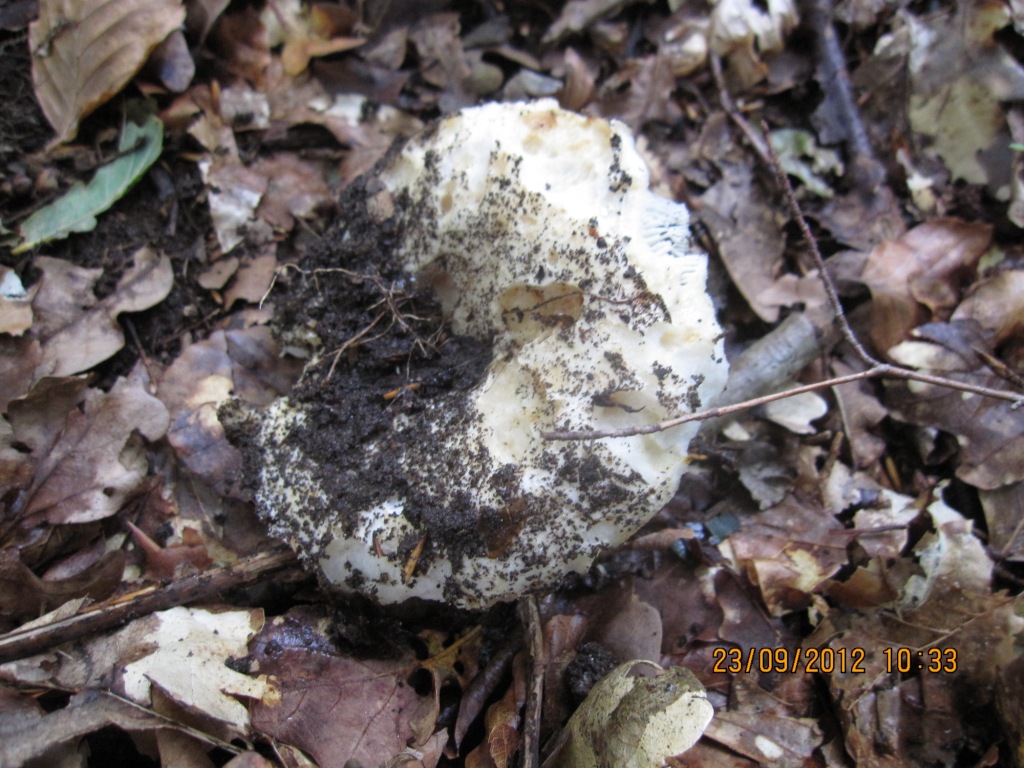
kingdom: Fungi
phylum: Basidiomycota
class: Agaricomycetes
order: Russulales
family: Russulaceae
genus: Russula
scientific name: Russula chloroides
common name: grønhalset tragt-skørhat
